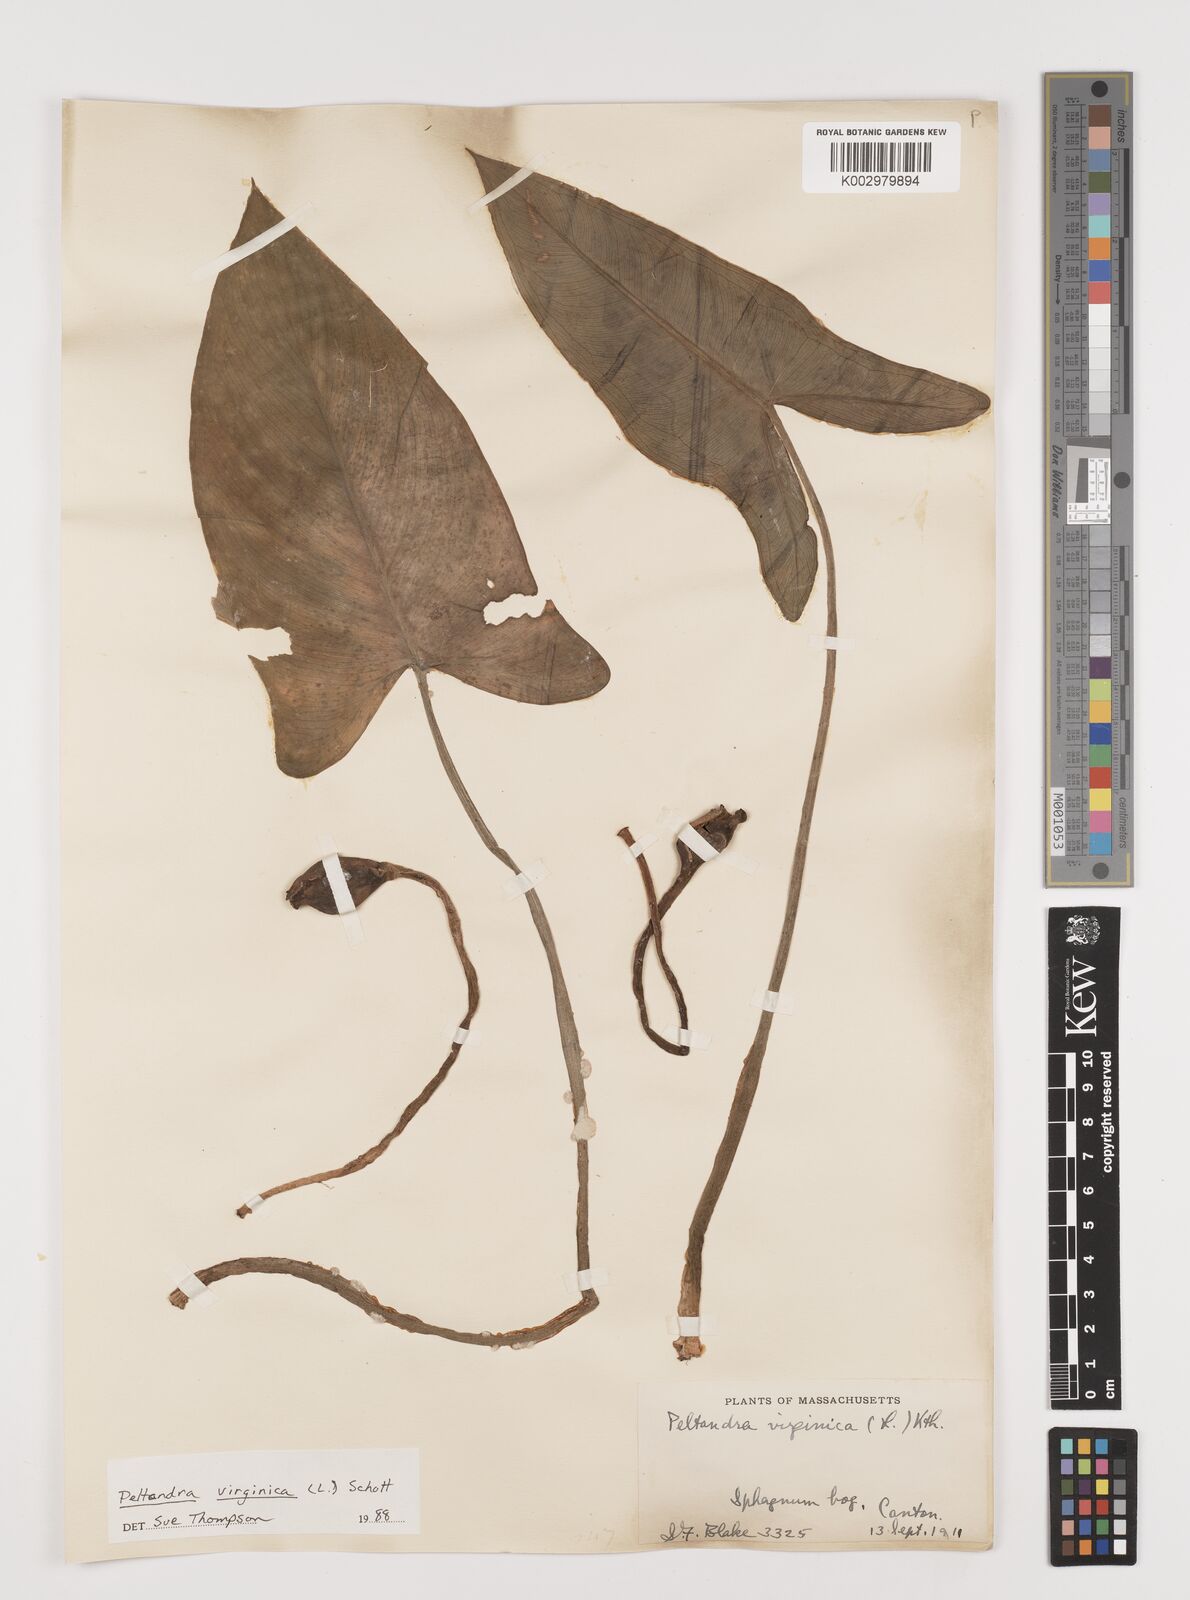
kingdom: Plantae
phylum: Tracheophyta
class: Liliopsida
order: Alismatales
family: Araceae
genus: Peltandra
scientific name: Peltandra virginica
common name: Arrow arum
